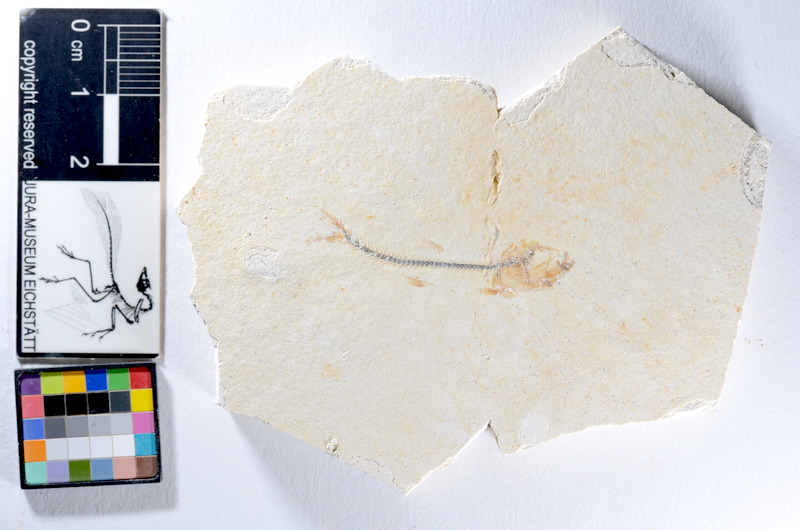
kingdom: Animalia
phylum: Chordata
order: Salmoniformes
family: Orthogonikleithridae
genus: Orthogonikleithrus
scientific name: Orthogonikleithrus hoelli
